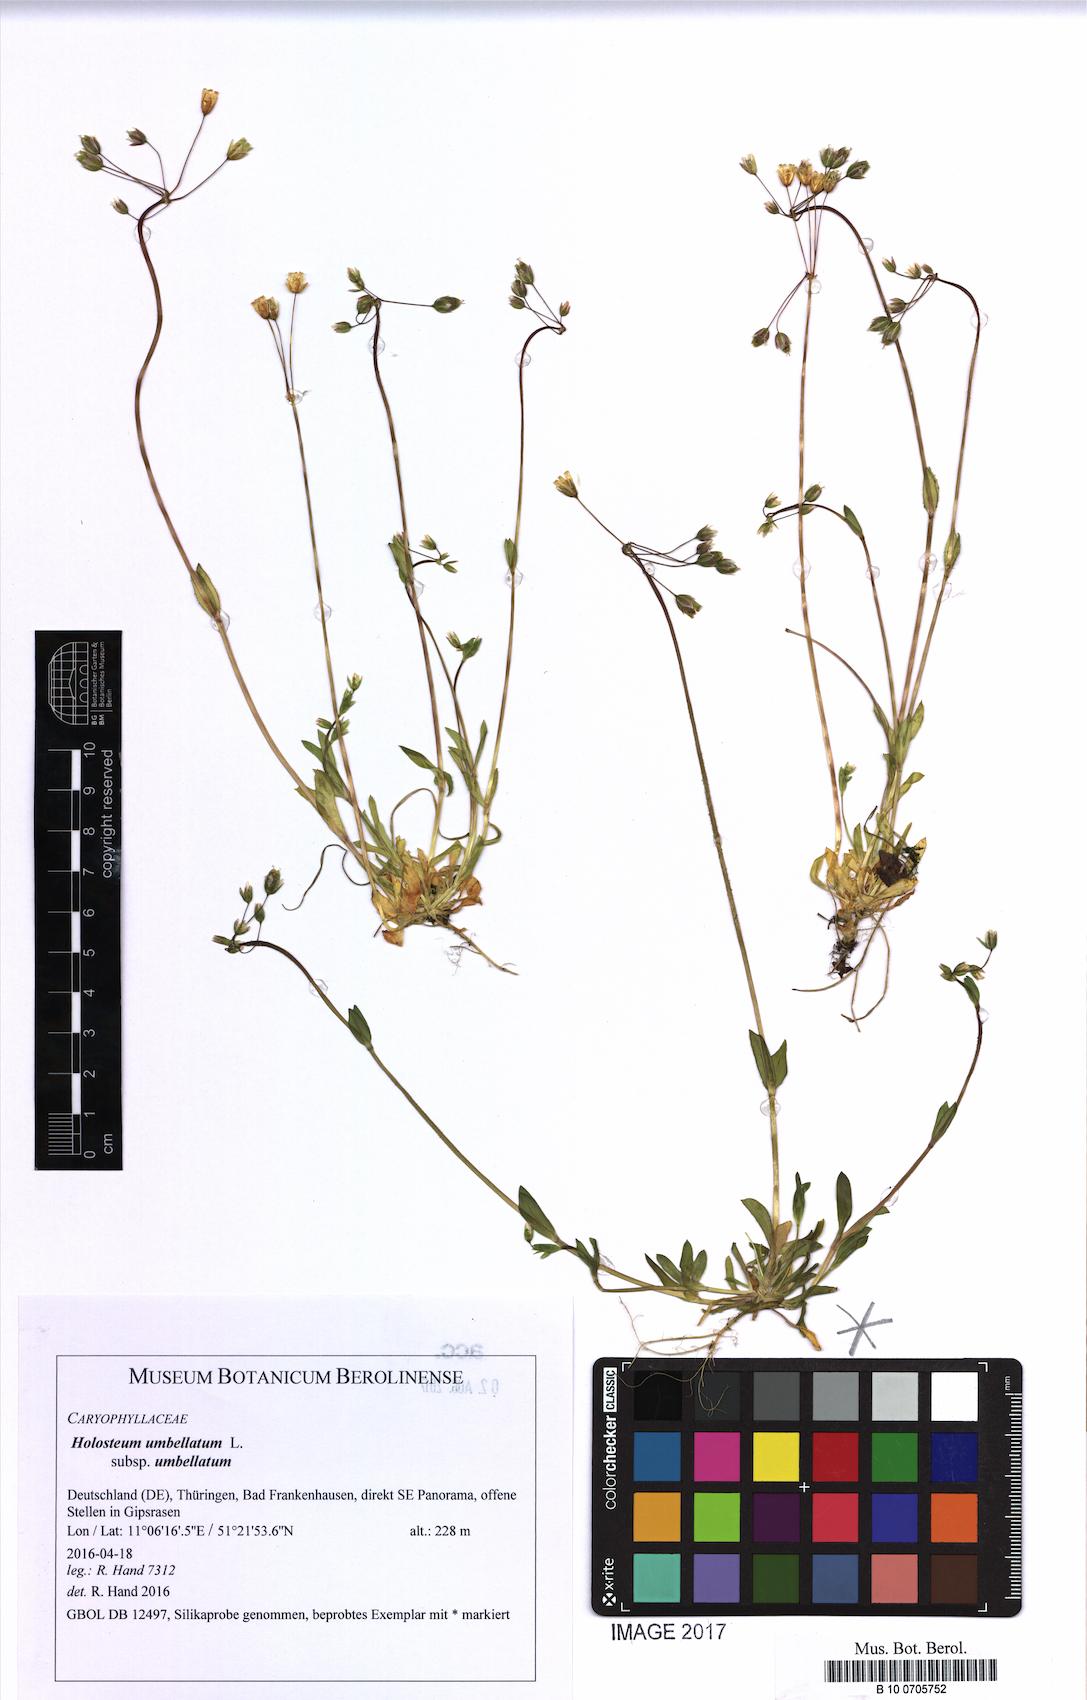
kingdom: Plantae
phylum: Tracheophyta
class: Magnoliopsida
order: Caryophyllales
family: Caryophyllaceae
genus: Holosteum
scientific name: Holosteum umbellatum
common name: Jagged chickweed
